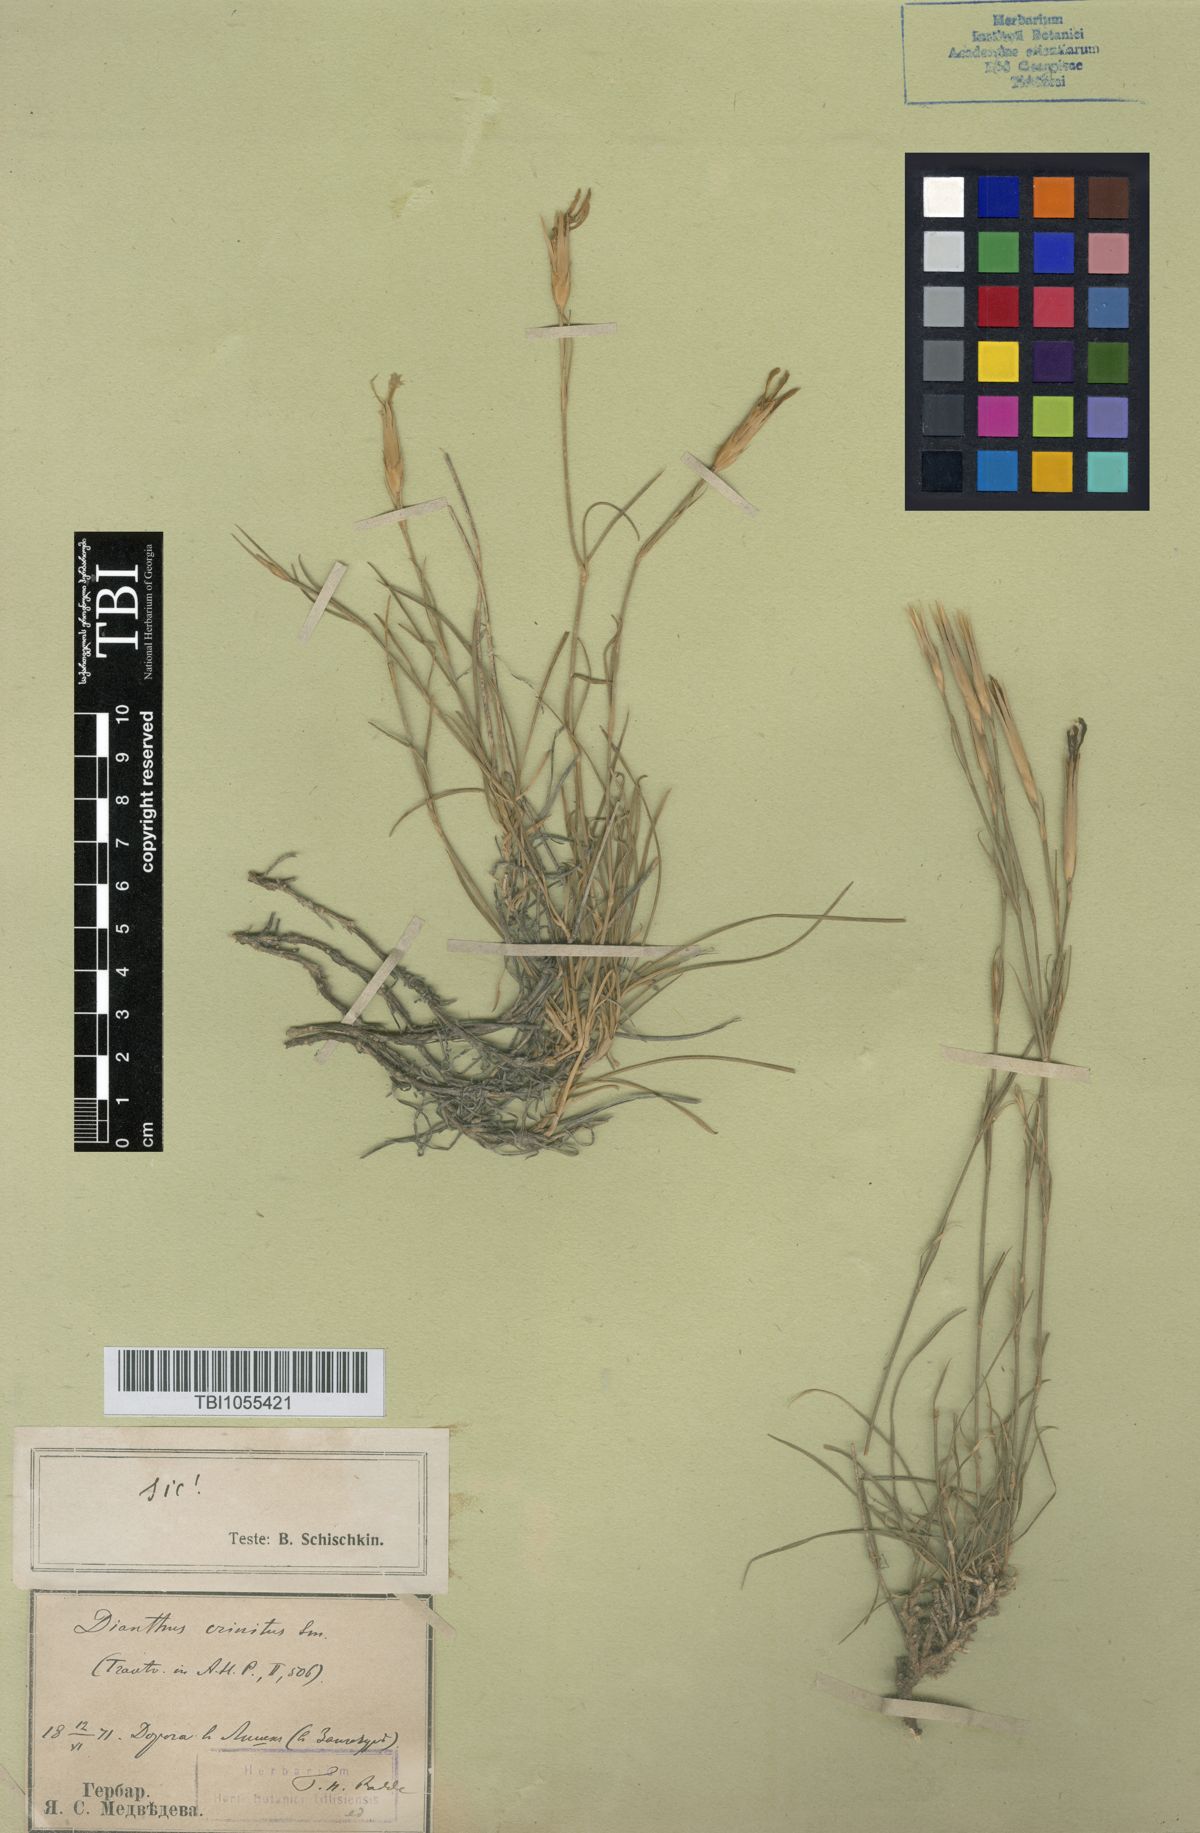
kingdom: Plantae
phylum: Tracheophyta
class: Magnoliopsida
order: Caryophyllales
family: Caryophyllaceae
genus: Dianthus
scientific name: Dianthus crinitus
